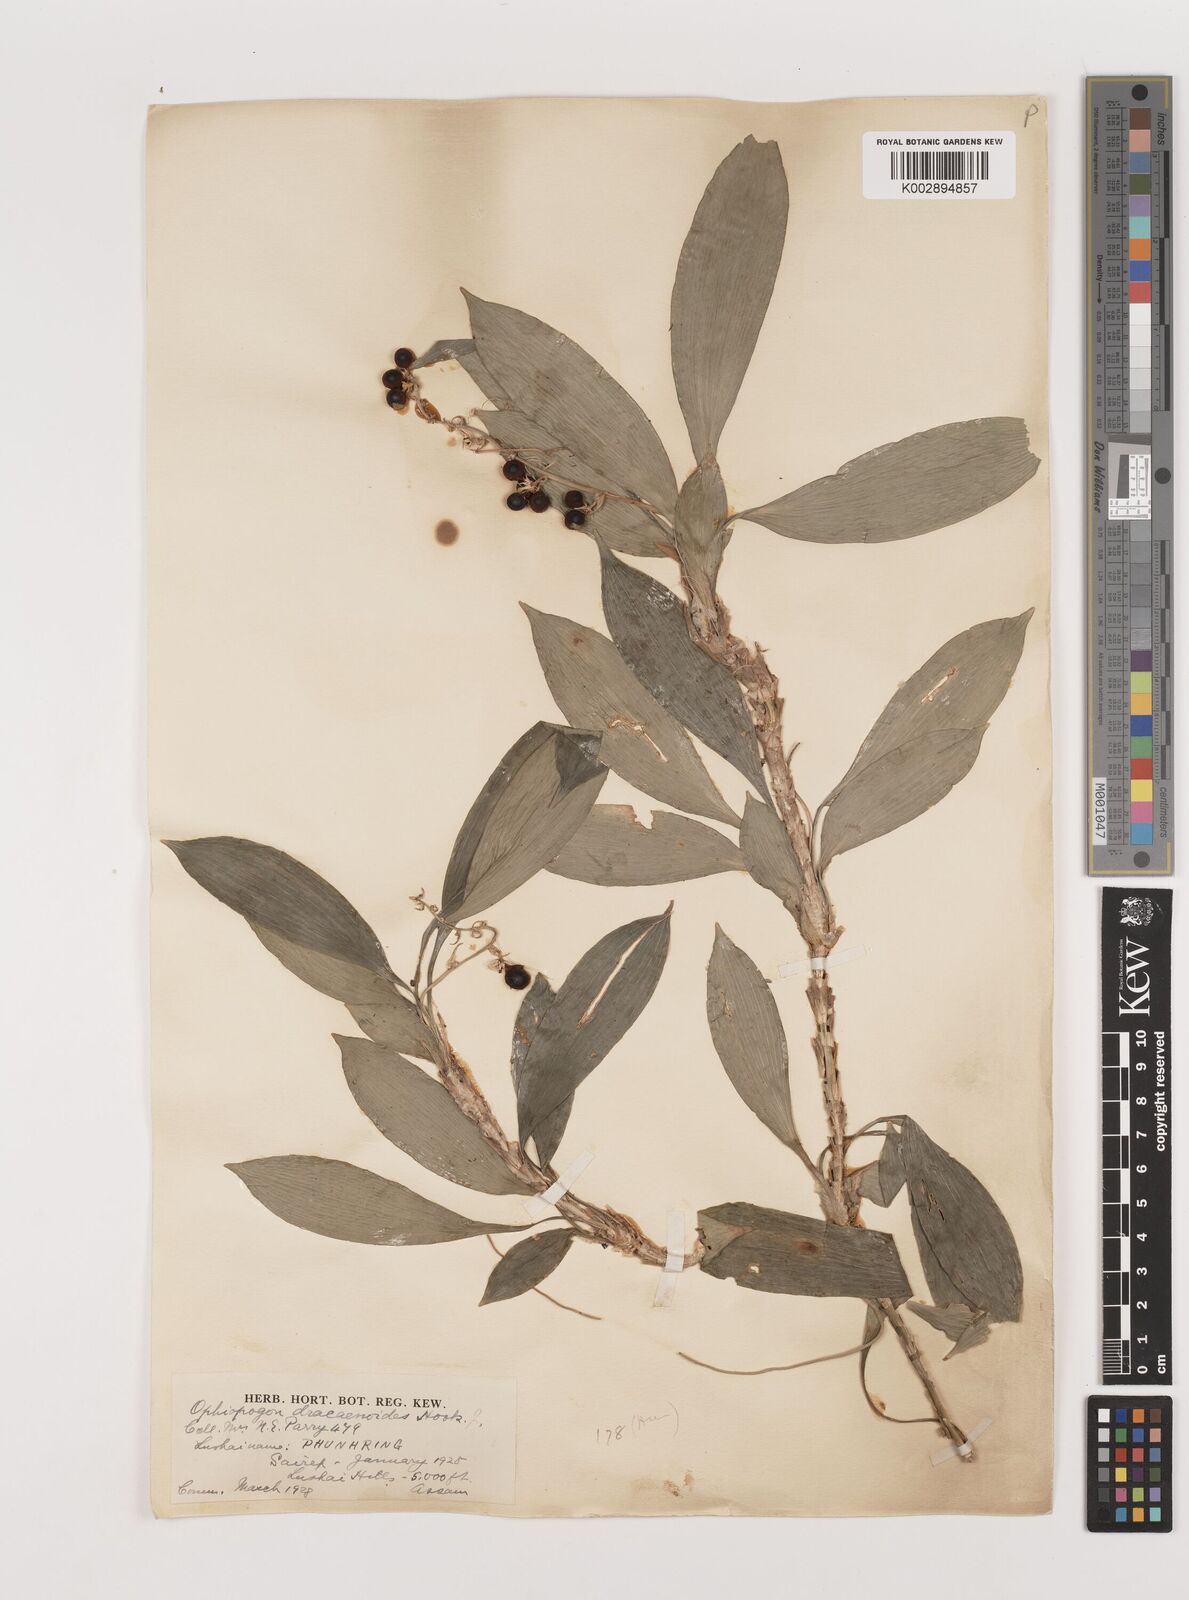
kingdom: Plantae
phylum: Tracheophyta
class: Liliopsida
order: Asparagales
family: Asparagaceae
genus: Ophiopogon
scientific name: Ophiopogon dracaenoides
